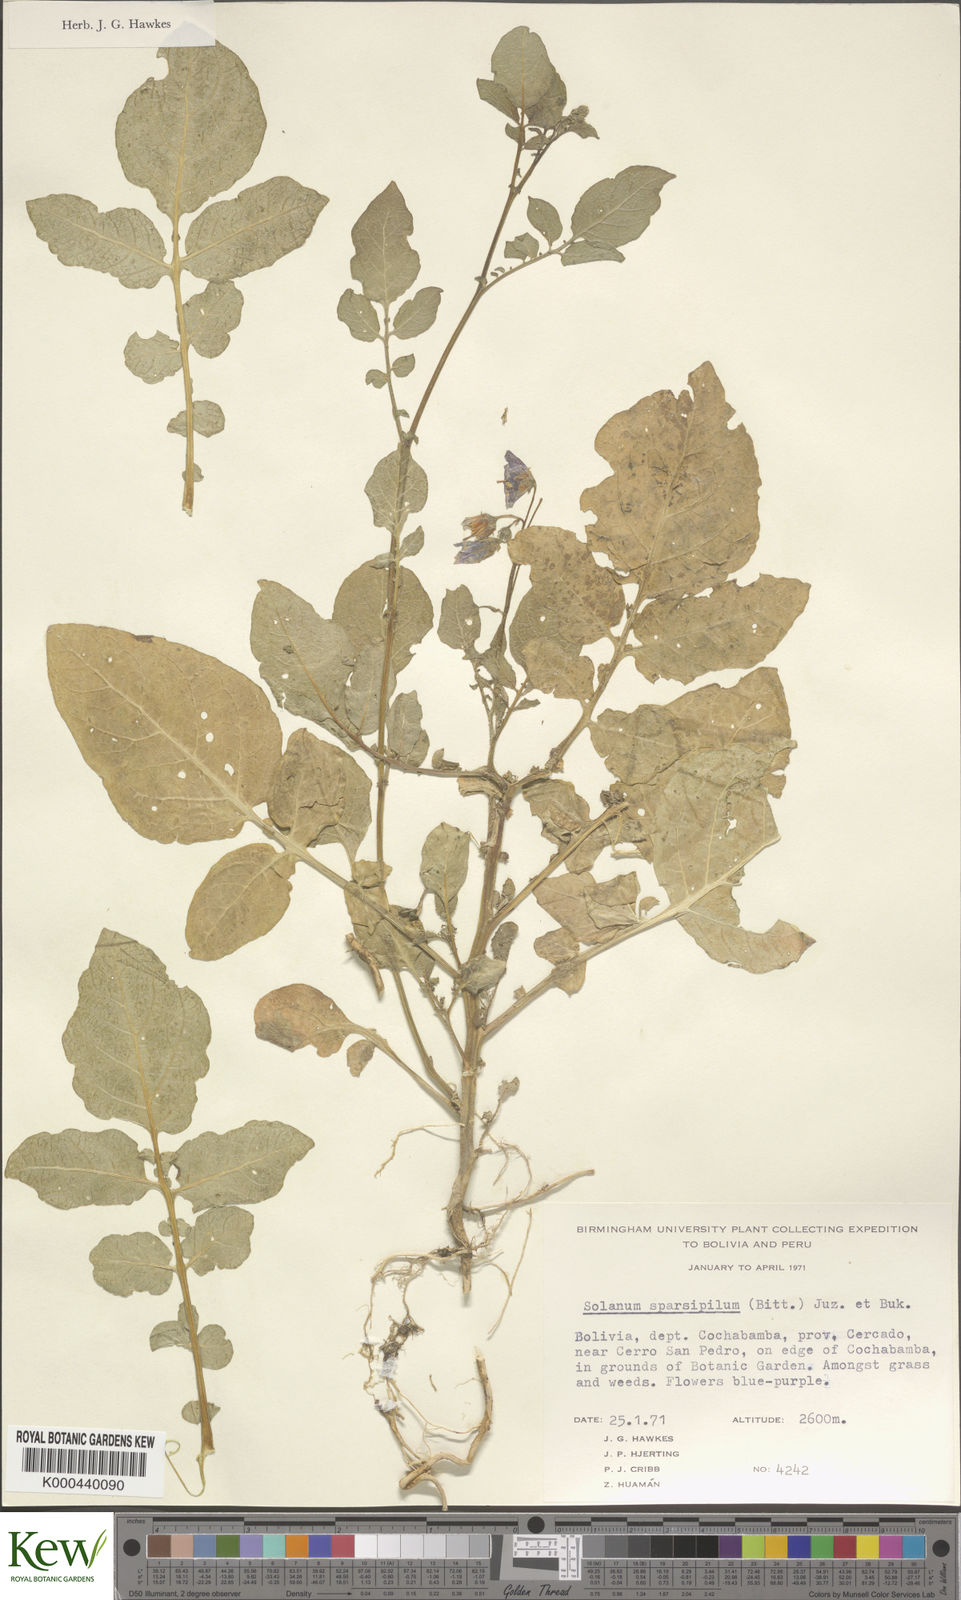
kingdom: Plantae
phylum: Tracheophyta
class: Magnoliopsida
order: Solanales
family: Solanaceae
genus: Solanum
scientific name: Solanum brevicaule
